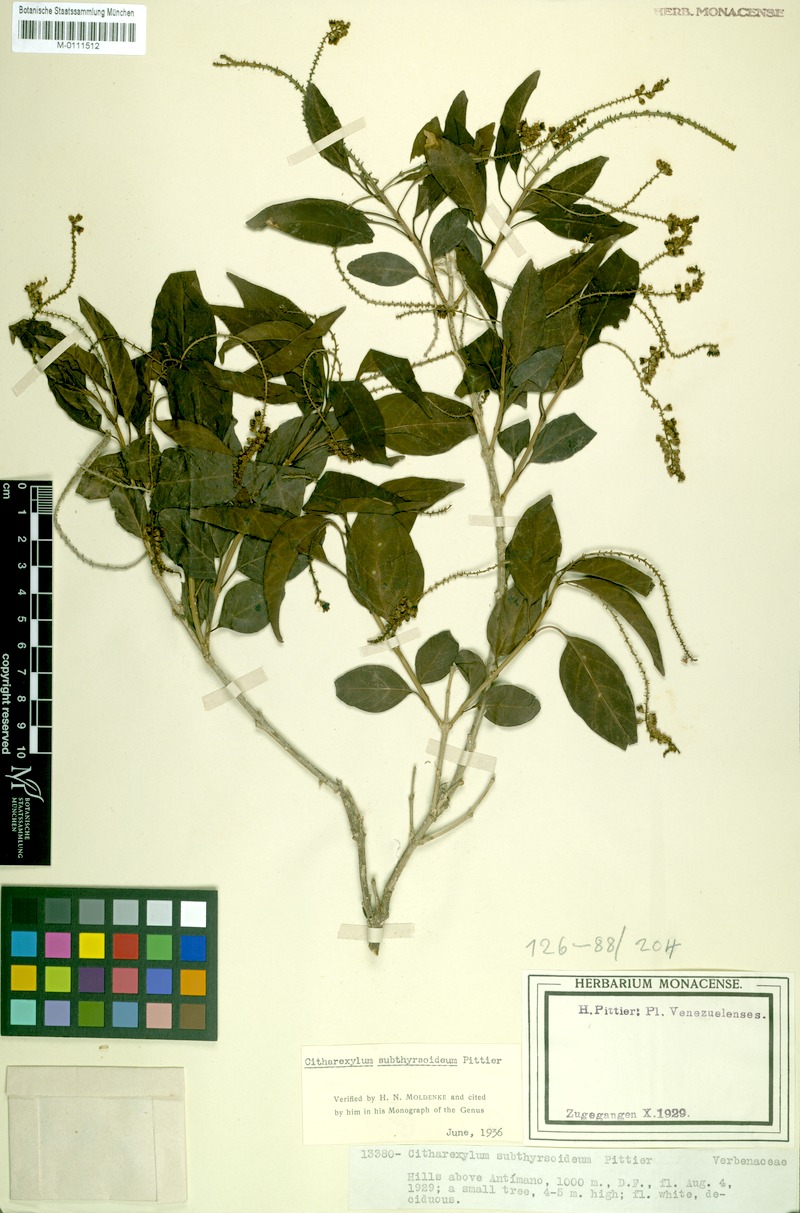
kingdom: Plantae
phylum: Tracheophyta
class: Magnoliopsida
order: Lamiales
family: Verbenaceae
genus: Citharexylum
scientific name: Citharexylum subthyrsoideum
